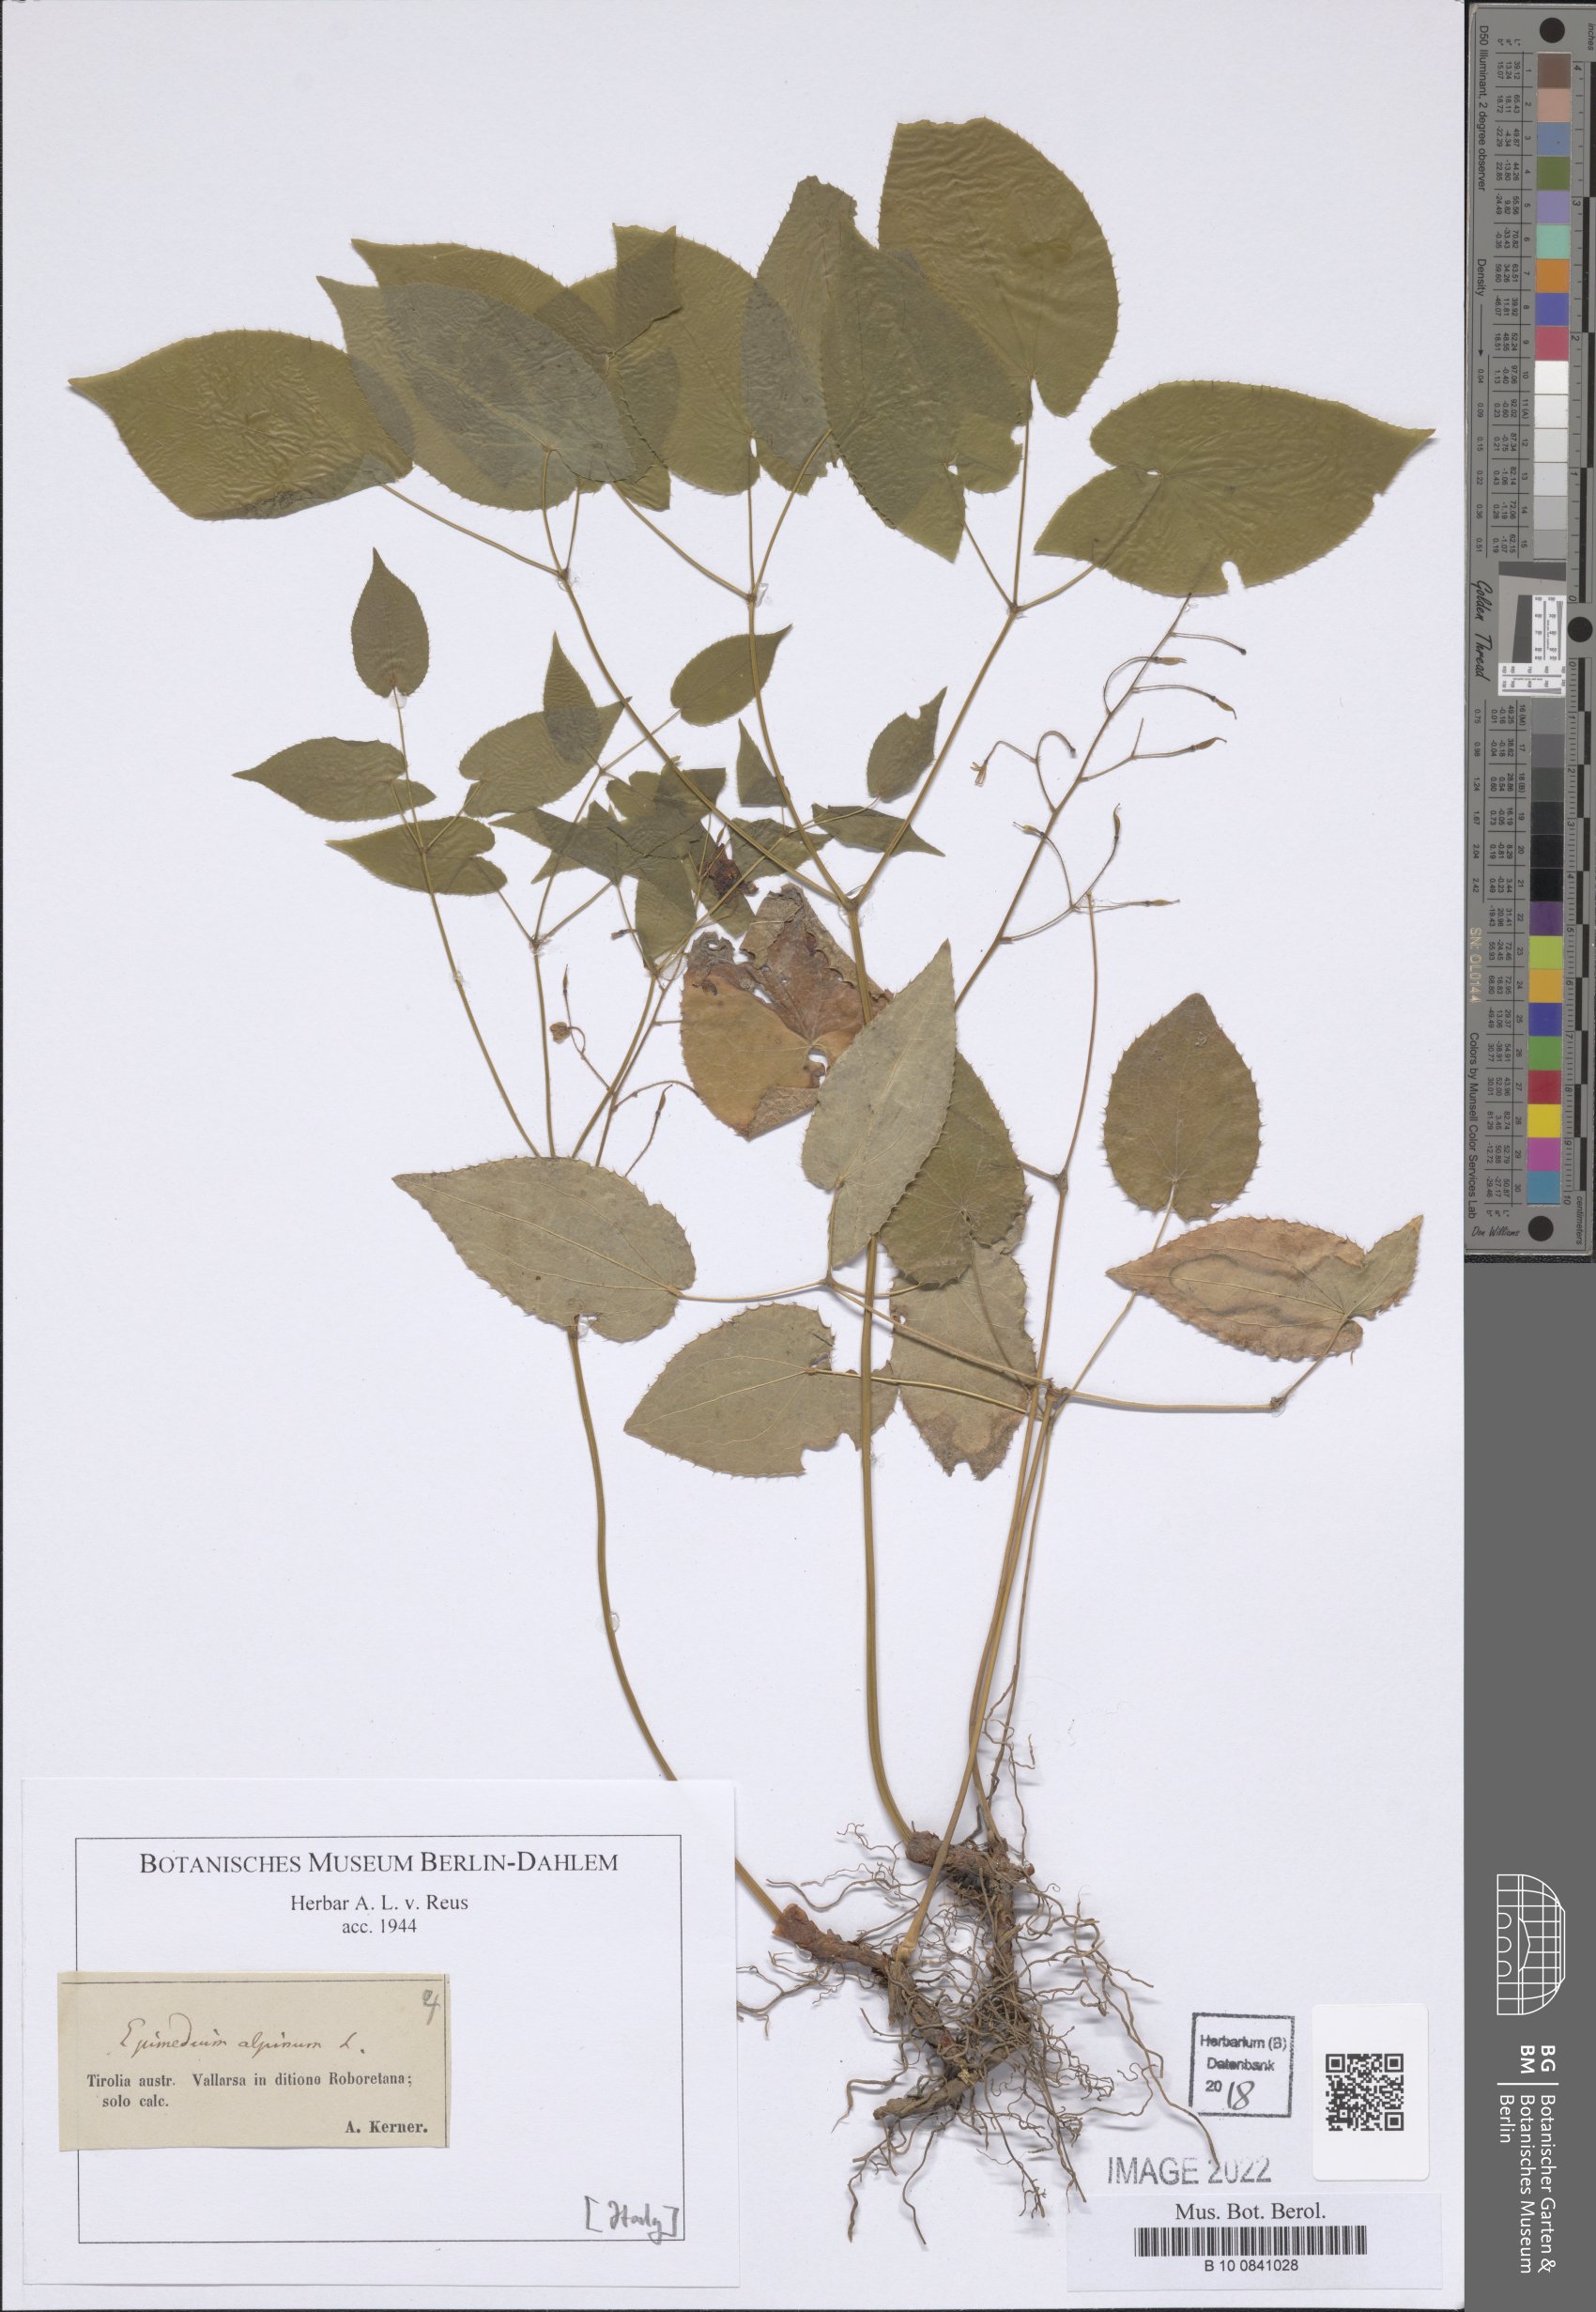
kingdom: Plantae
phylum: Tracheophyta
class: Magnoliopsida
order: Ranunculales
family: Berberidaceae
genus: Epimedium
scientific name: Epimedium alpinum
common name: Barrenwort
